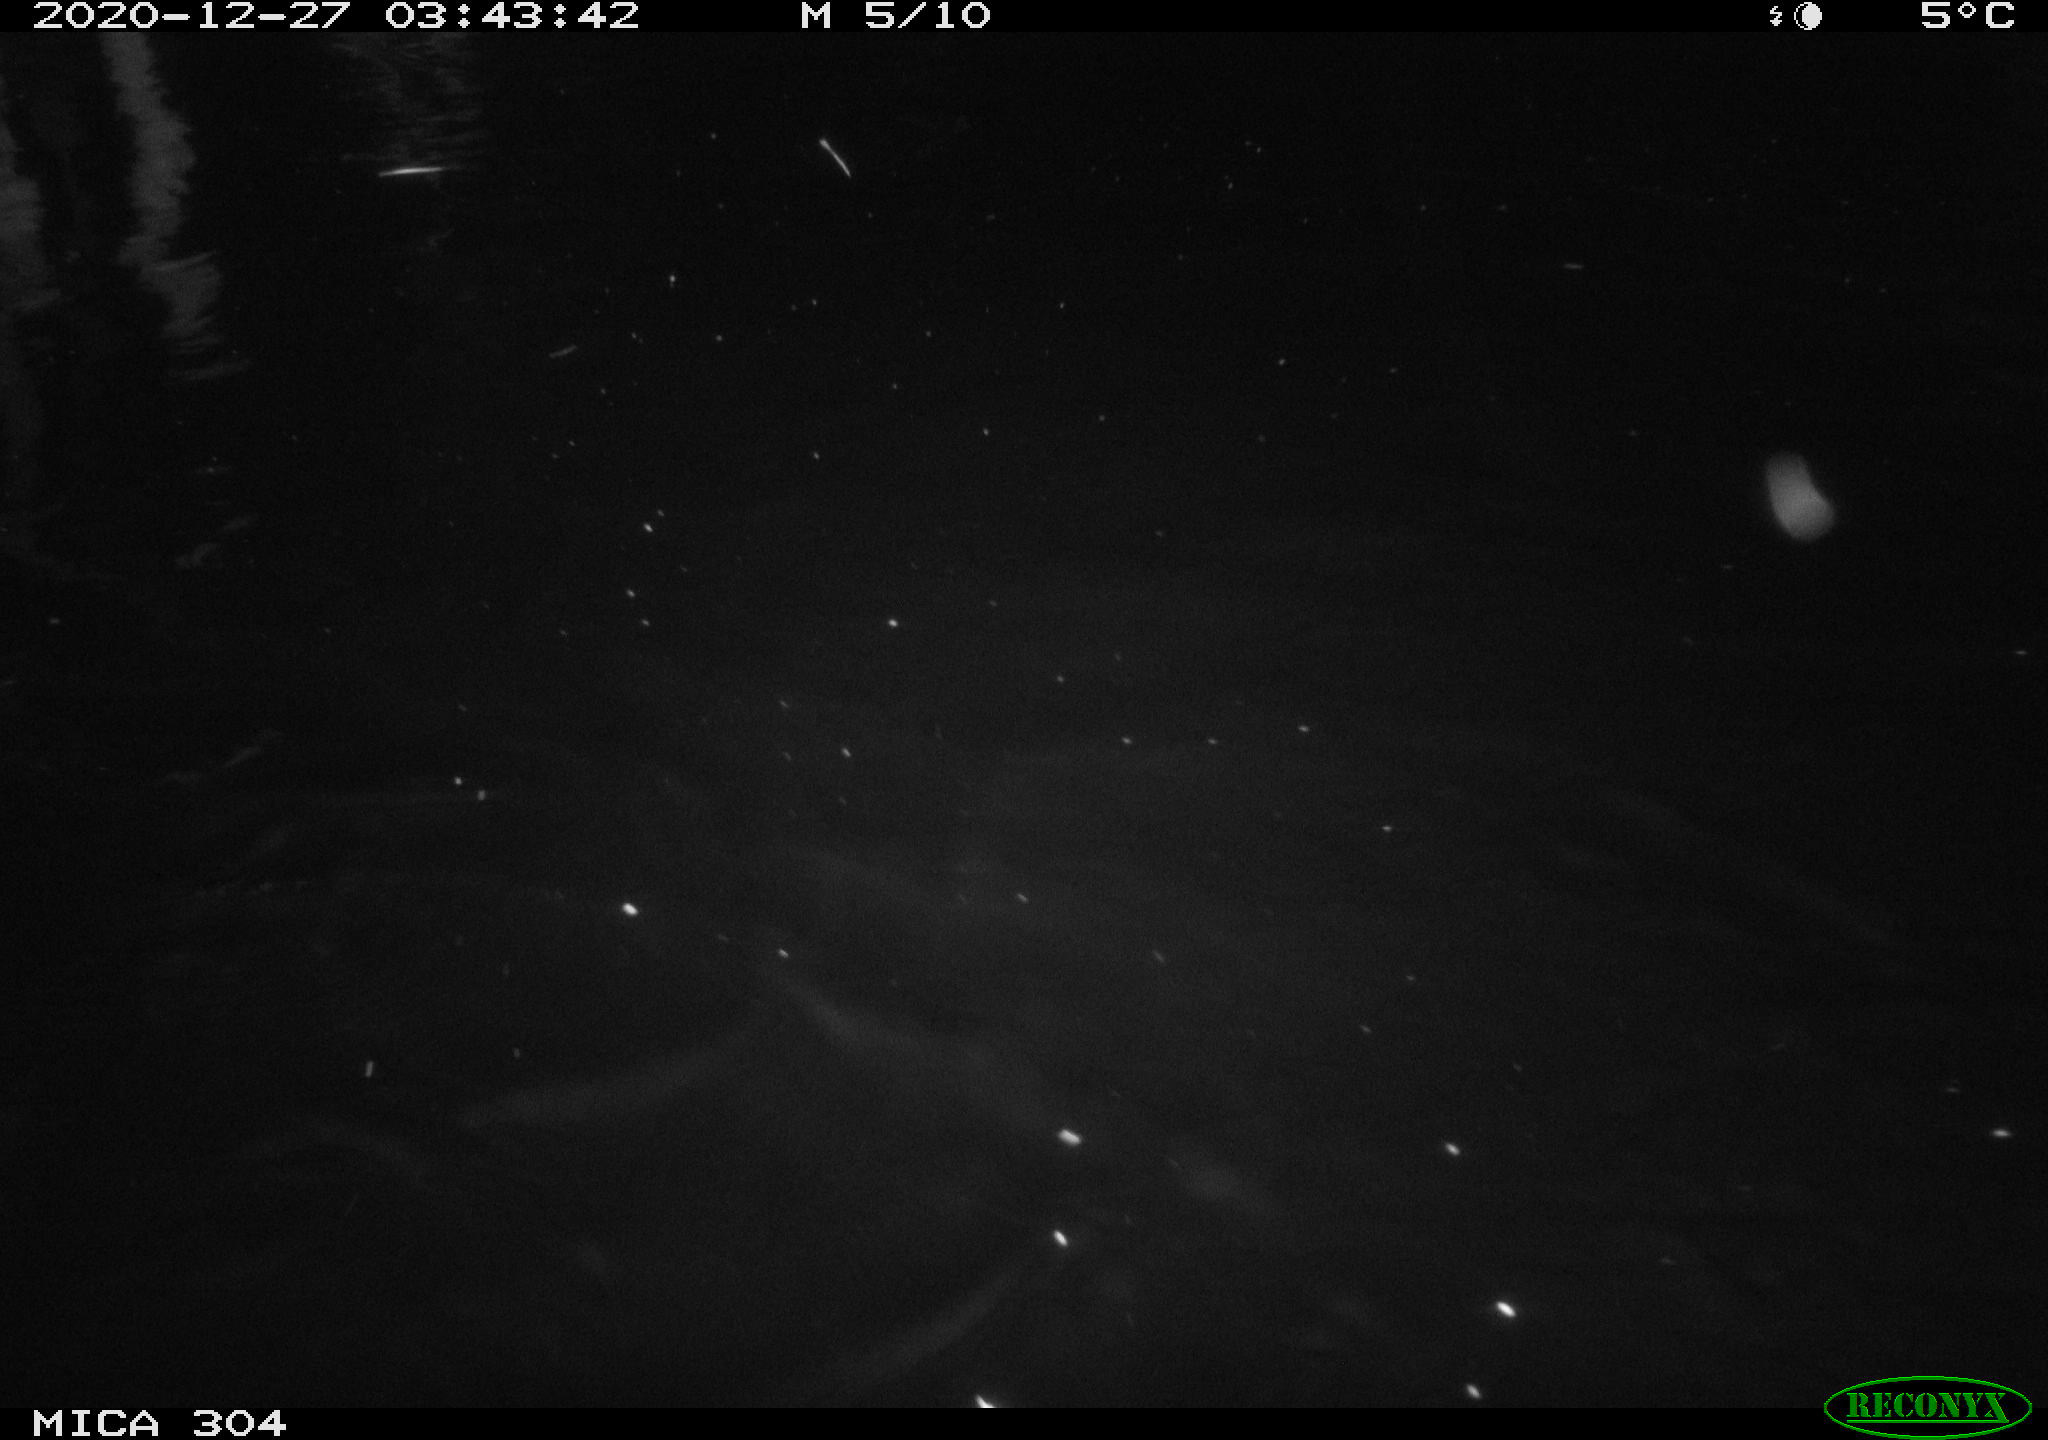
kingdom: Animalia
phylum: Chordata
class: Mammalia
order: Rodentia
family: Cricetidae
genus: Ondatra
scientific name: Ondatra zibethicus
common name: Muskrat
